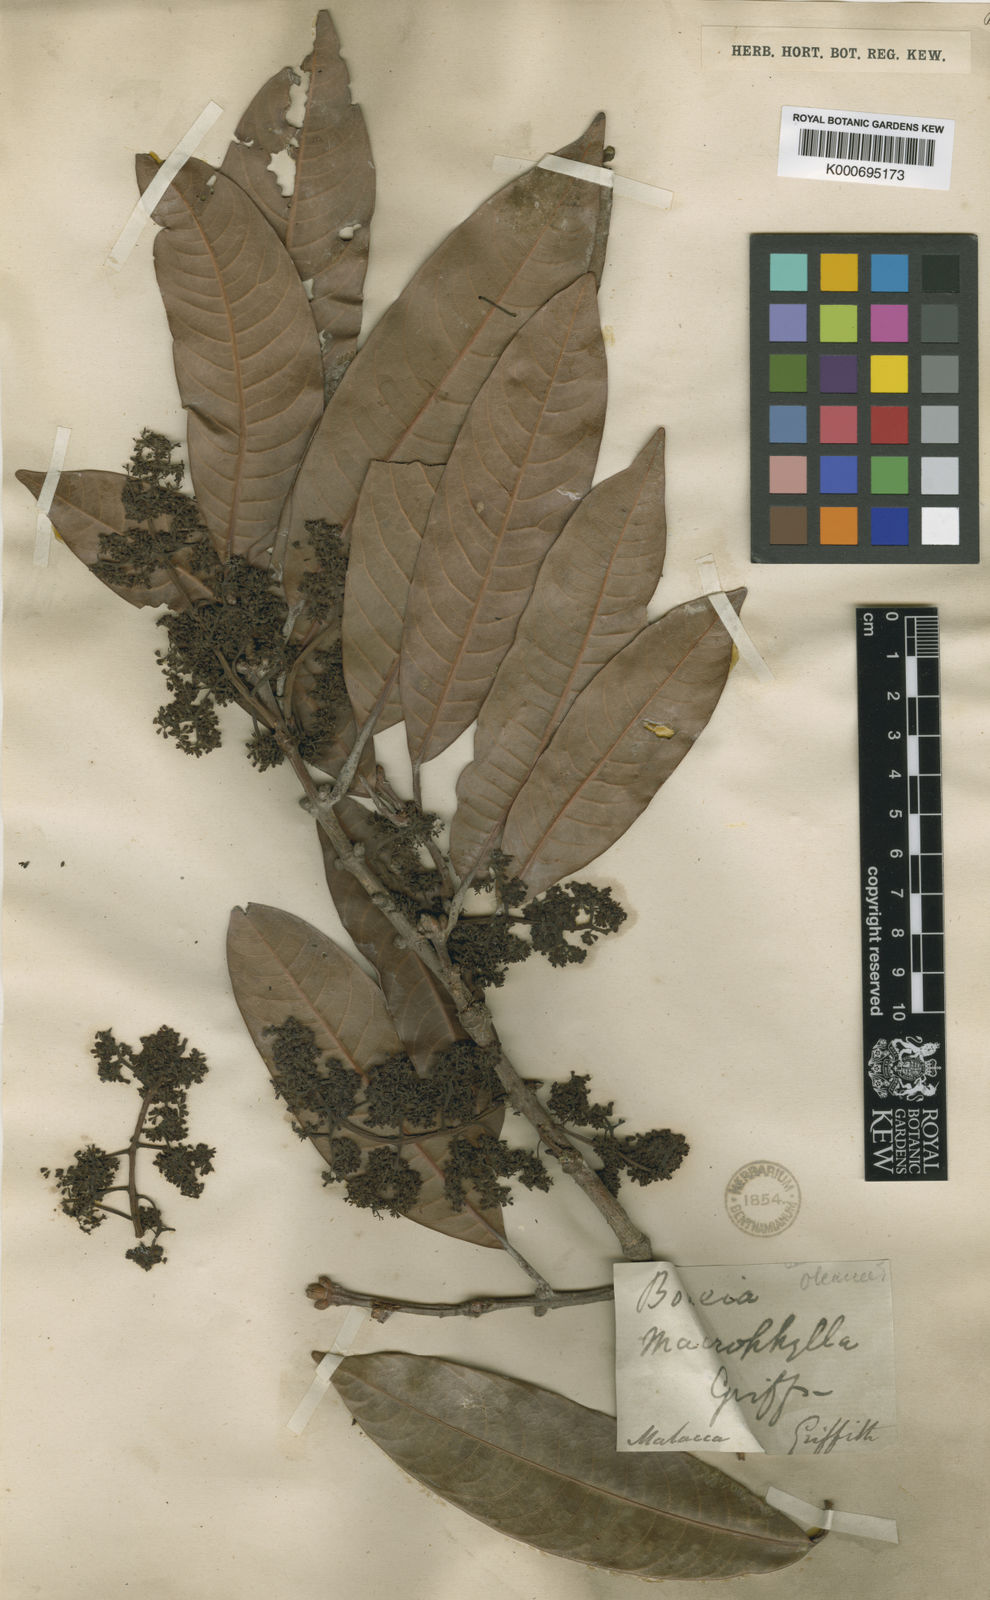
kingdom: Plantae
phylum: Tracheophyta
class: Magnoliopsida
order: Sapindales
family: Anacardiaceae
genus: Bouea
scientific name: Bouea macrophylla
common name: Gandaria
